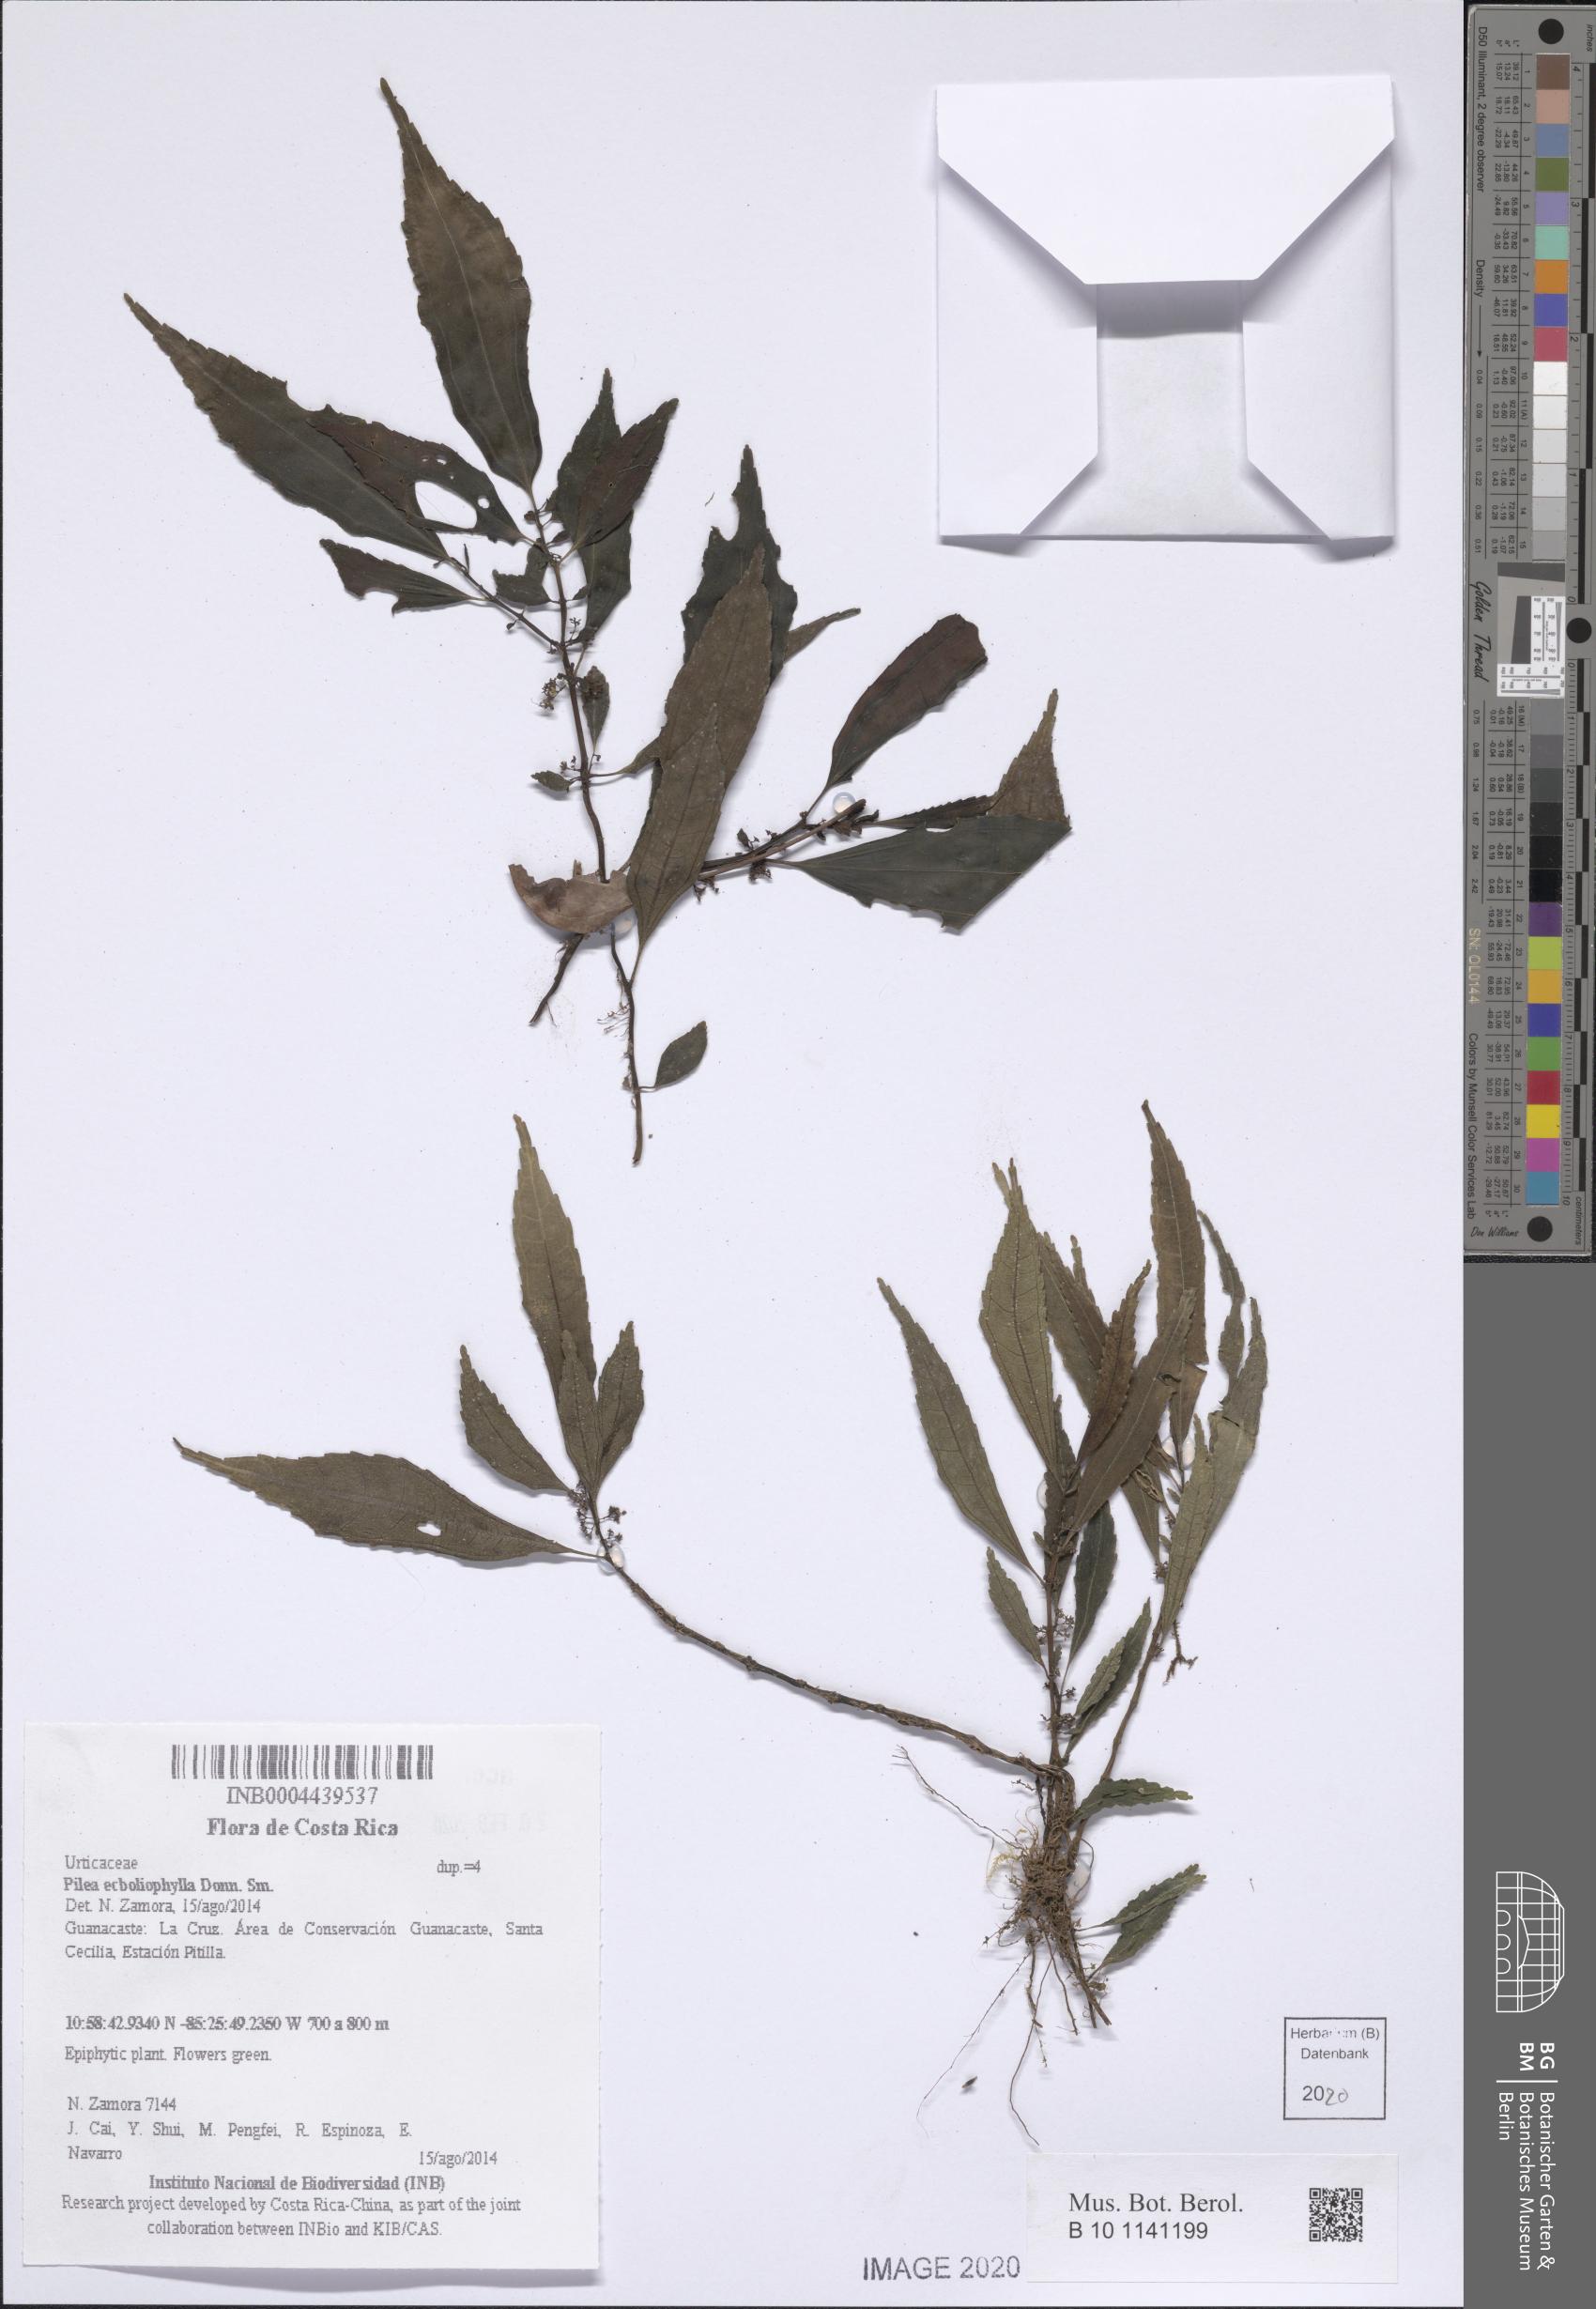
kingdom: Plantae
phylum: Tracheophyta
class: Magnoliopsida
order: Rosales
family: Urticaceae
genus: Pilea
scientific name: Pilea ecbolophylla
